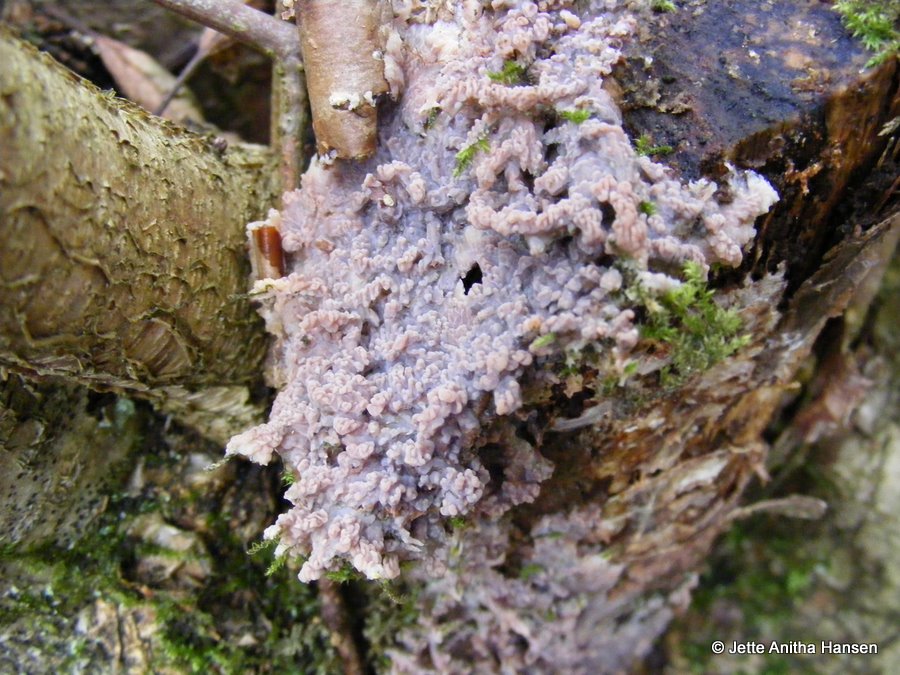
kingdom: Fungi
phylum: Basidiomycota
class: Agaricomycetes
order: Polyporales
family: Meruliaceae
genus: Phlebia
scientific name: Phlebia radiata
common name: stråle-åresvamp
